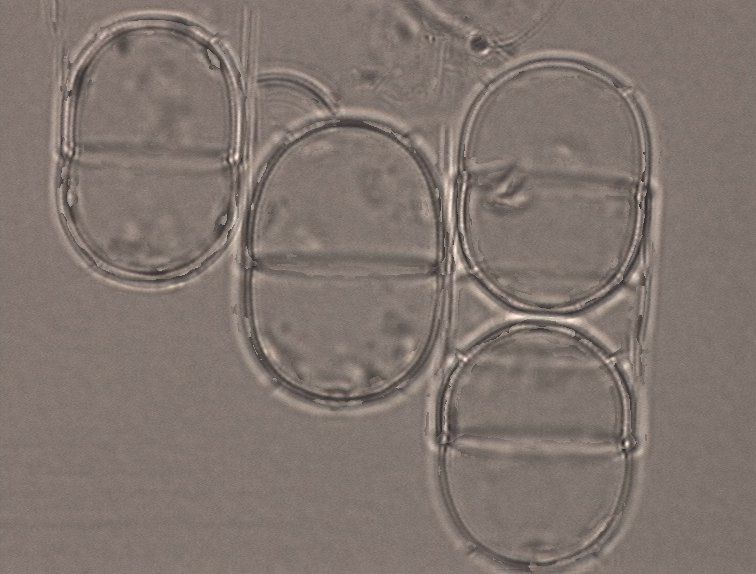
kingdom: Chromista
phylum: Ochrophyta
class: Bacillariophyceae
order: Melosirales
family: Melosiraceae
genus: Melosira
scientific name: Melosira nummuloides
